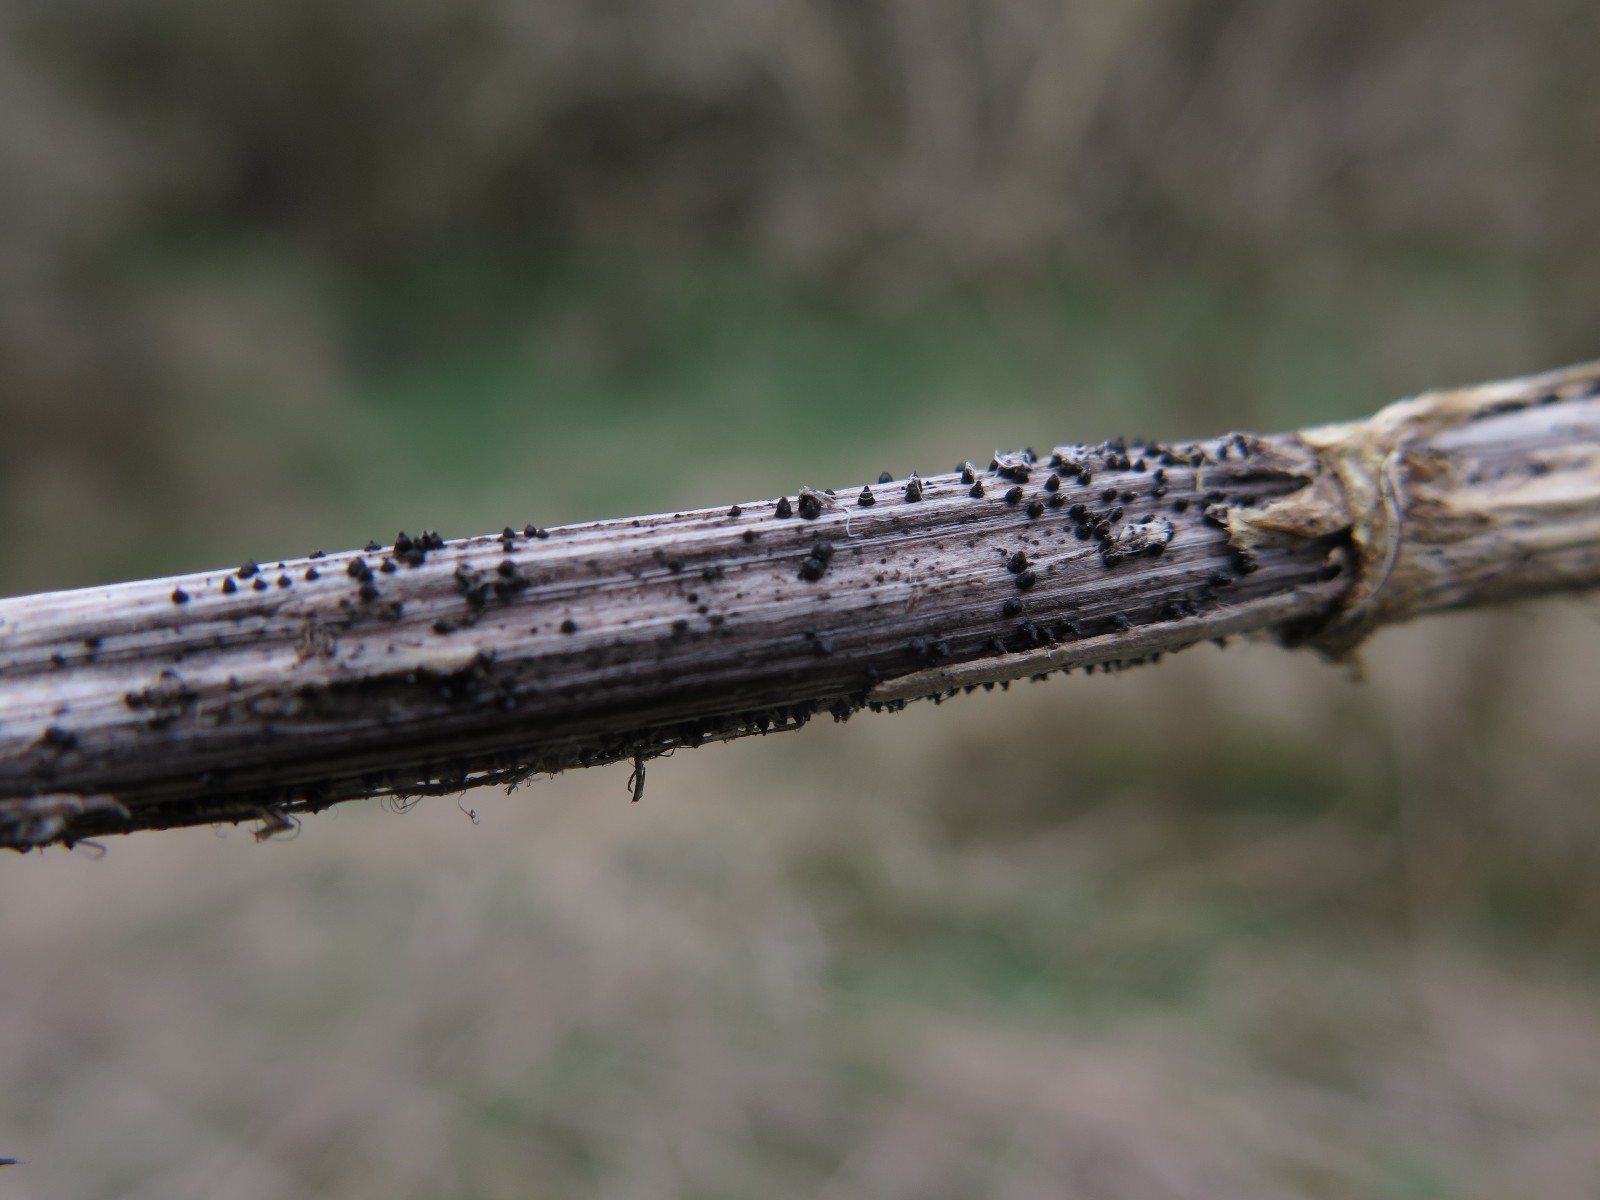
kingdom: Fungi
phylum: Ascomycota
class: Dothideomycetes
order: Pleosporales
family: Leptosphaeriaceae
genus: Leptosphaeria
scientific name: Leptosphaeria acuta
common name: spids kulkegle
